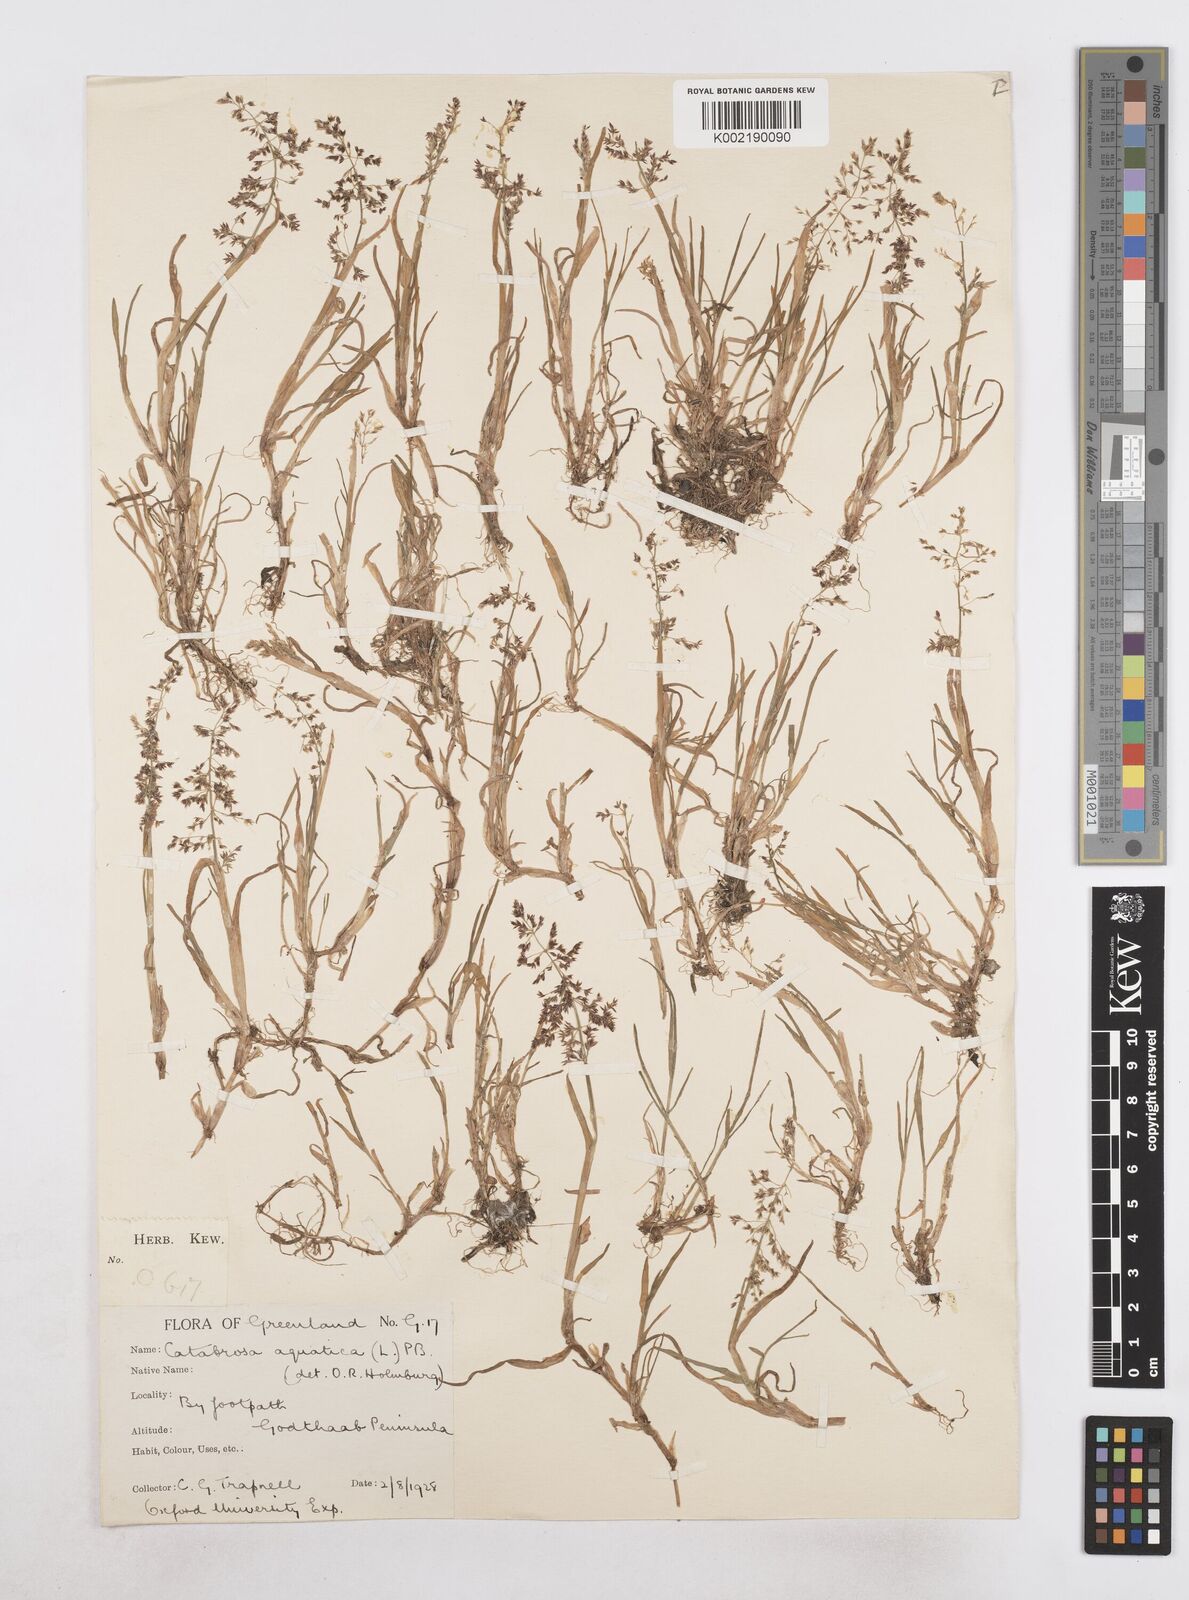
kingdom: Plantae
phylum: Tracheophyta
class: Liliopsida
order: Poales
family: Poaceae
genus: Catabrosa
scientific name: Catabrosa aquatica
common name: Whorl-grass
